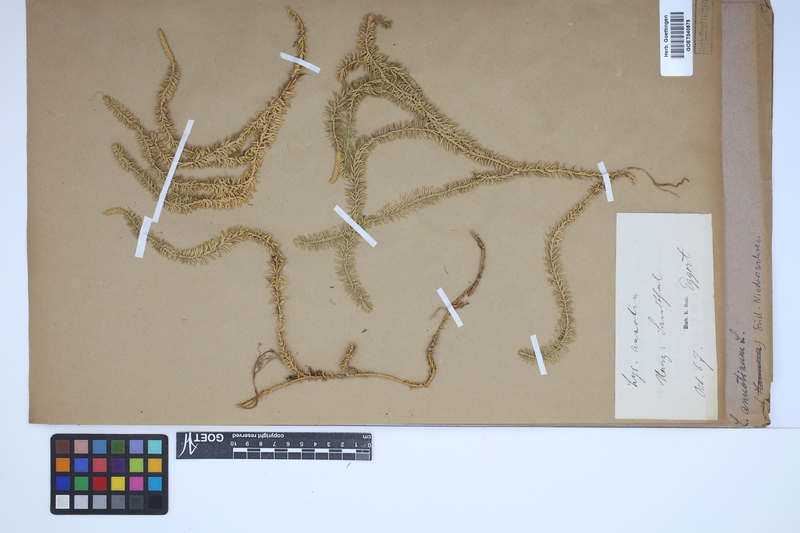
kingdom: Plantae
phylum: Tracheophyta
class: Lycopodiopsida
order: Lycopodiales
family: Lycopodiaceae
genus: Spinulum
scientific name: Spinulum annotinum
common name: Interrupted club-moss
